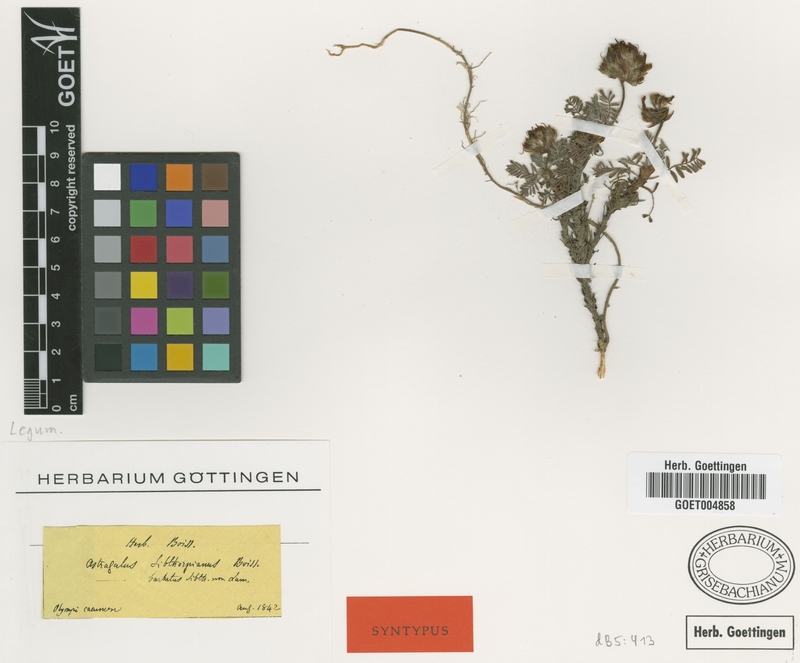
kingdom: Plantae
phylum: Tracheophyta
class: Magnoliopsida
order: Fabales
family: Fabaceae
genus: Astragalus
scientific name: Astragalus sibthorpianus
